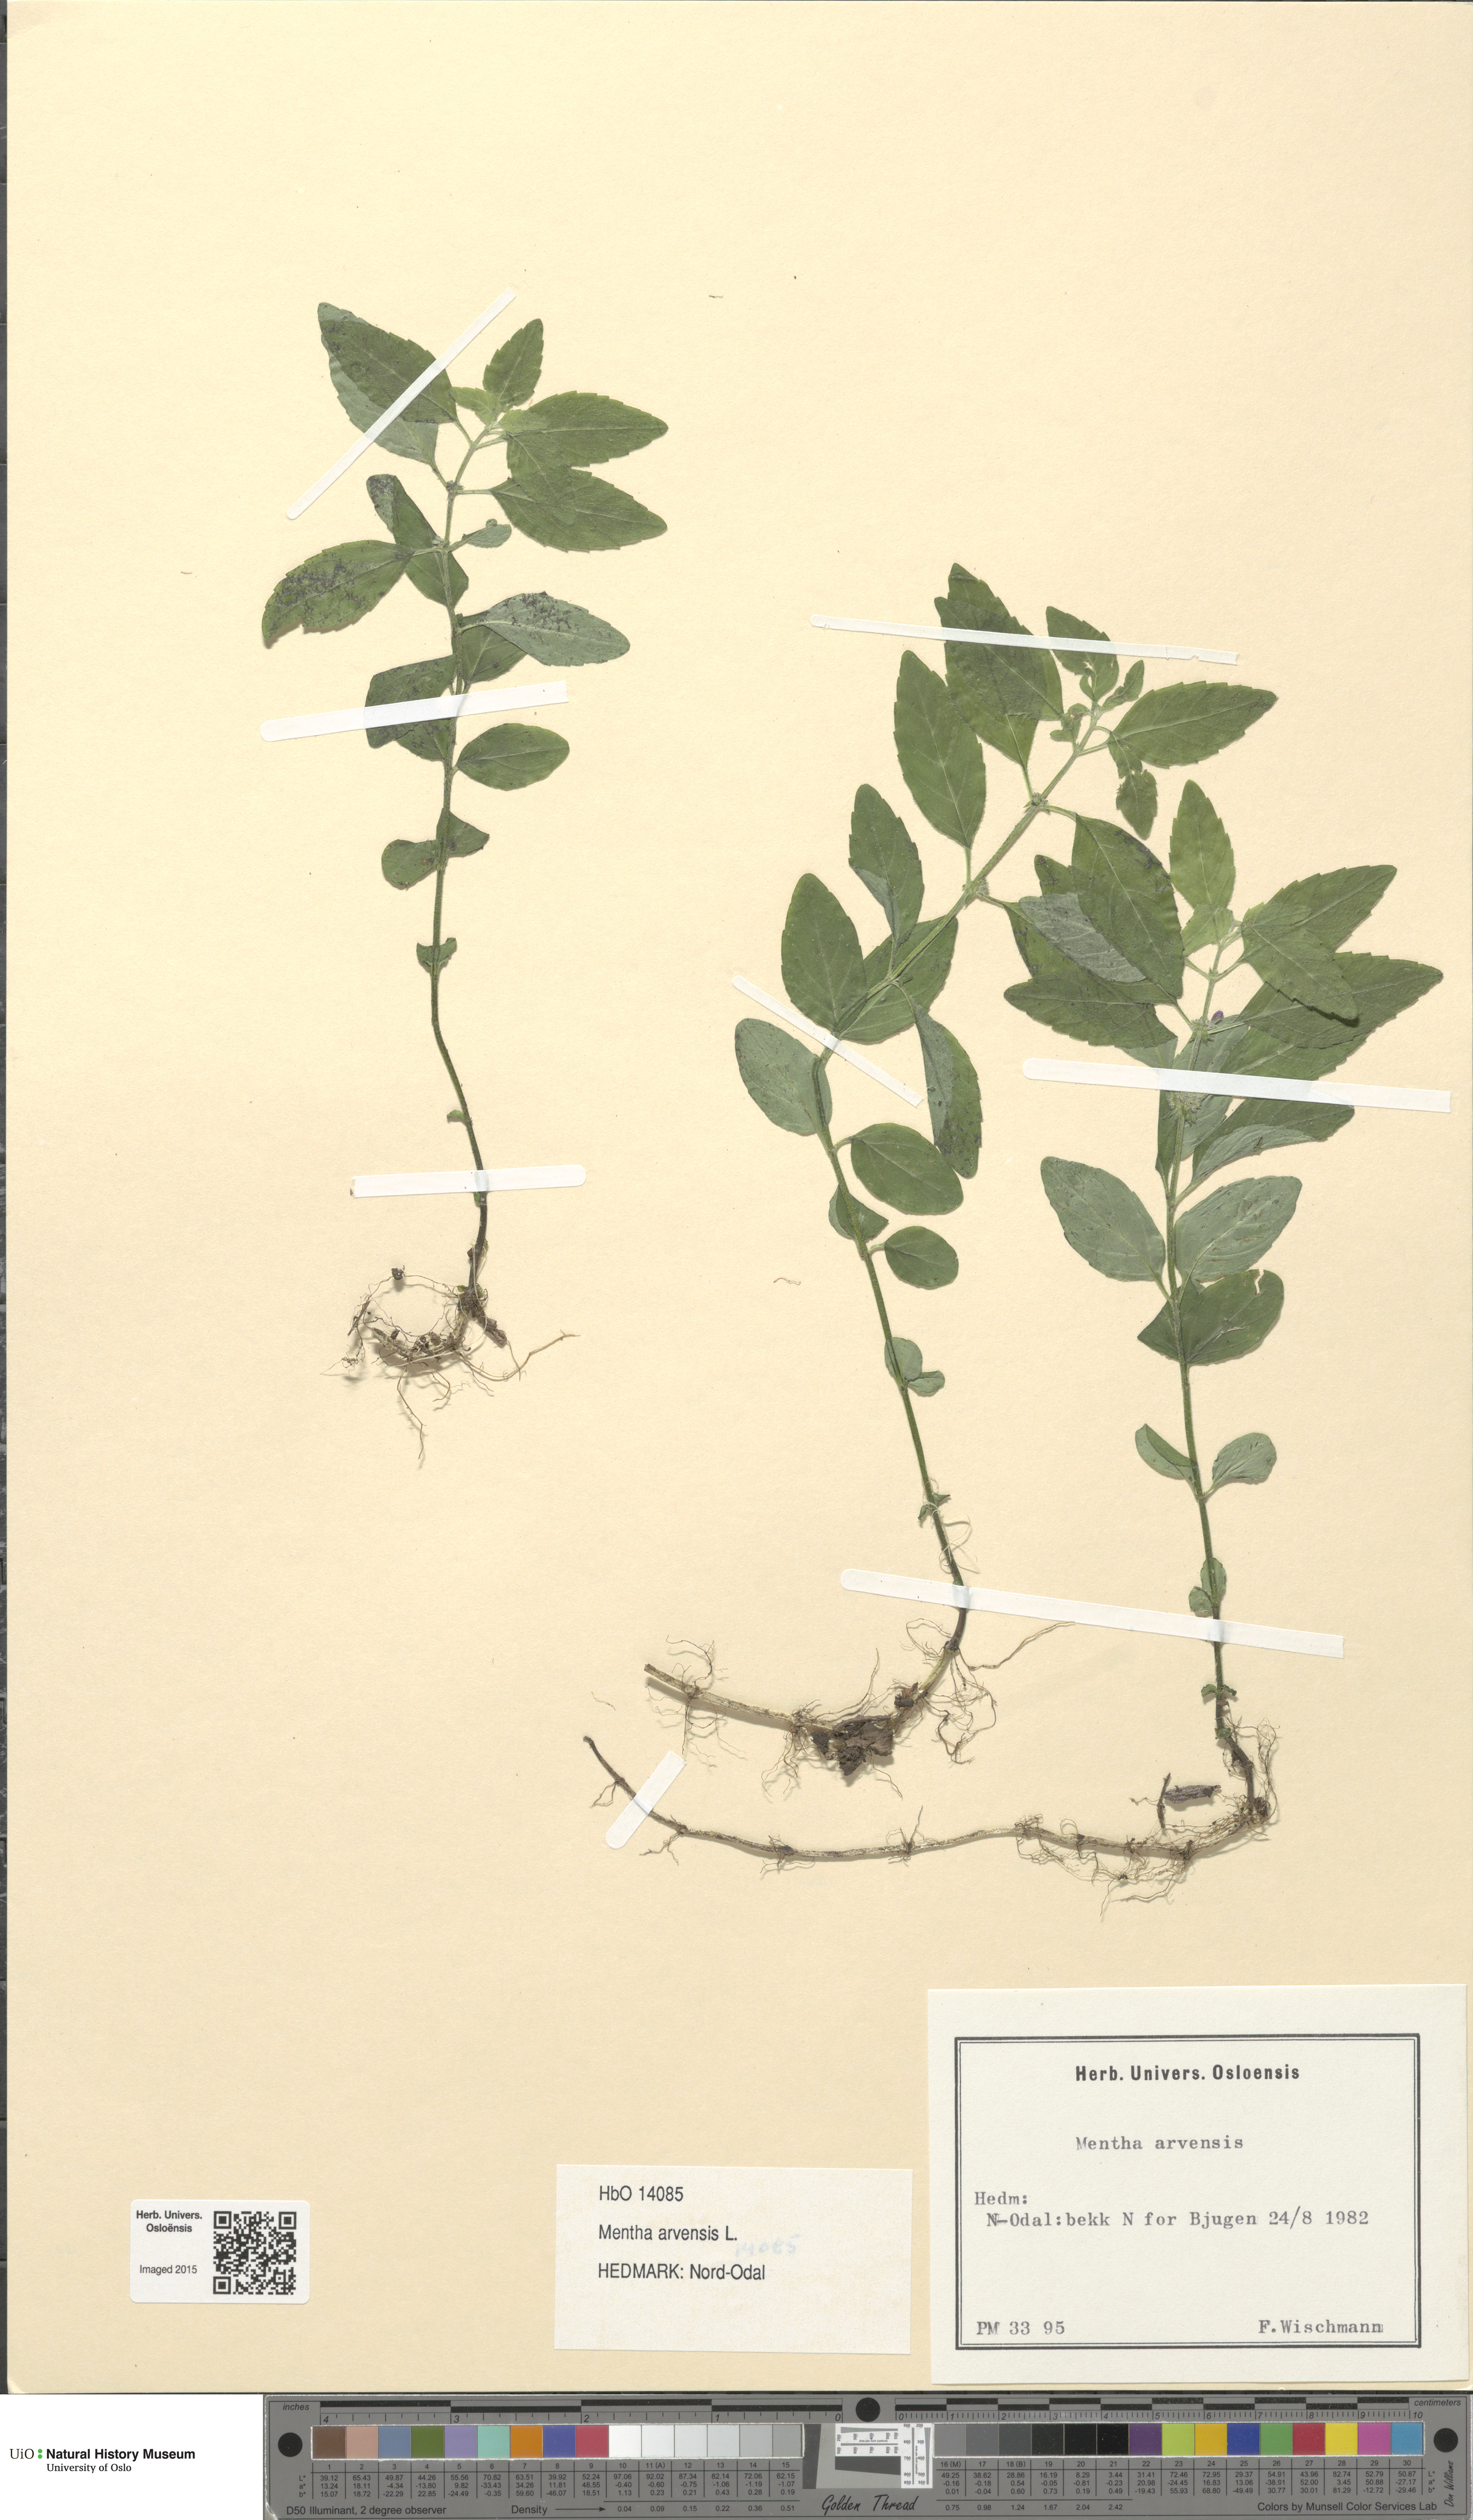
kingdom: Plantae
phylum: Tracheophyta
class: Magnoliopsida
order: Lamiales
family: Lamiaceae
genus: Mentha
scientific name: Mentha arvensis
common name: Corn mint
